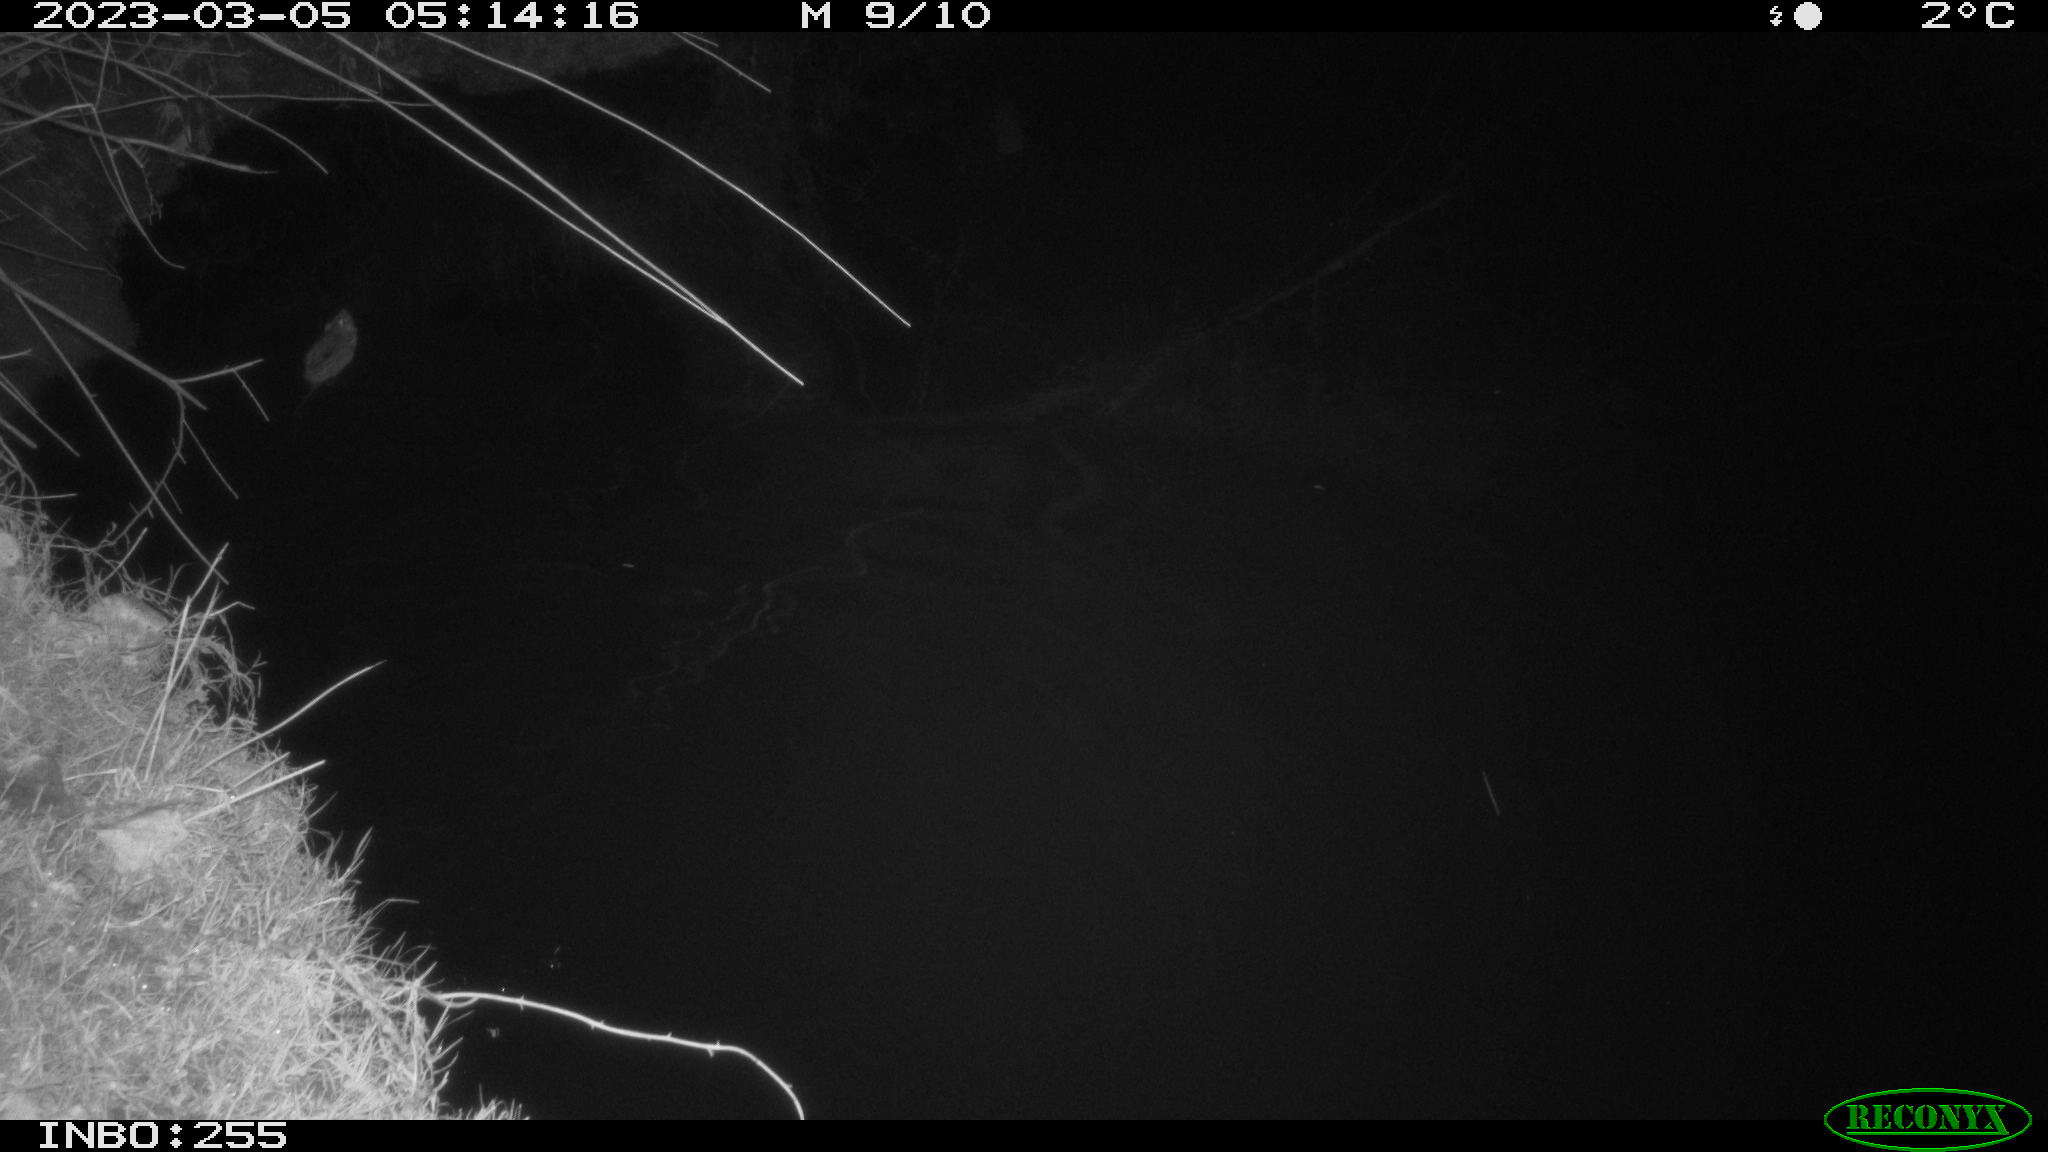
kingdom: Animalia
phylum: Chordata
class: Mammalia
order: Rodentia
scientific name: Rodentia
